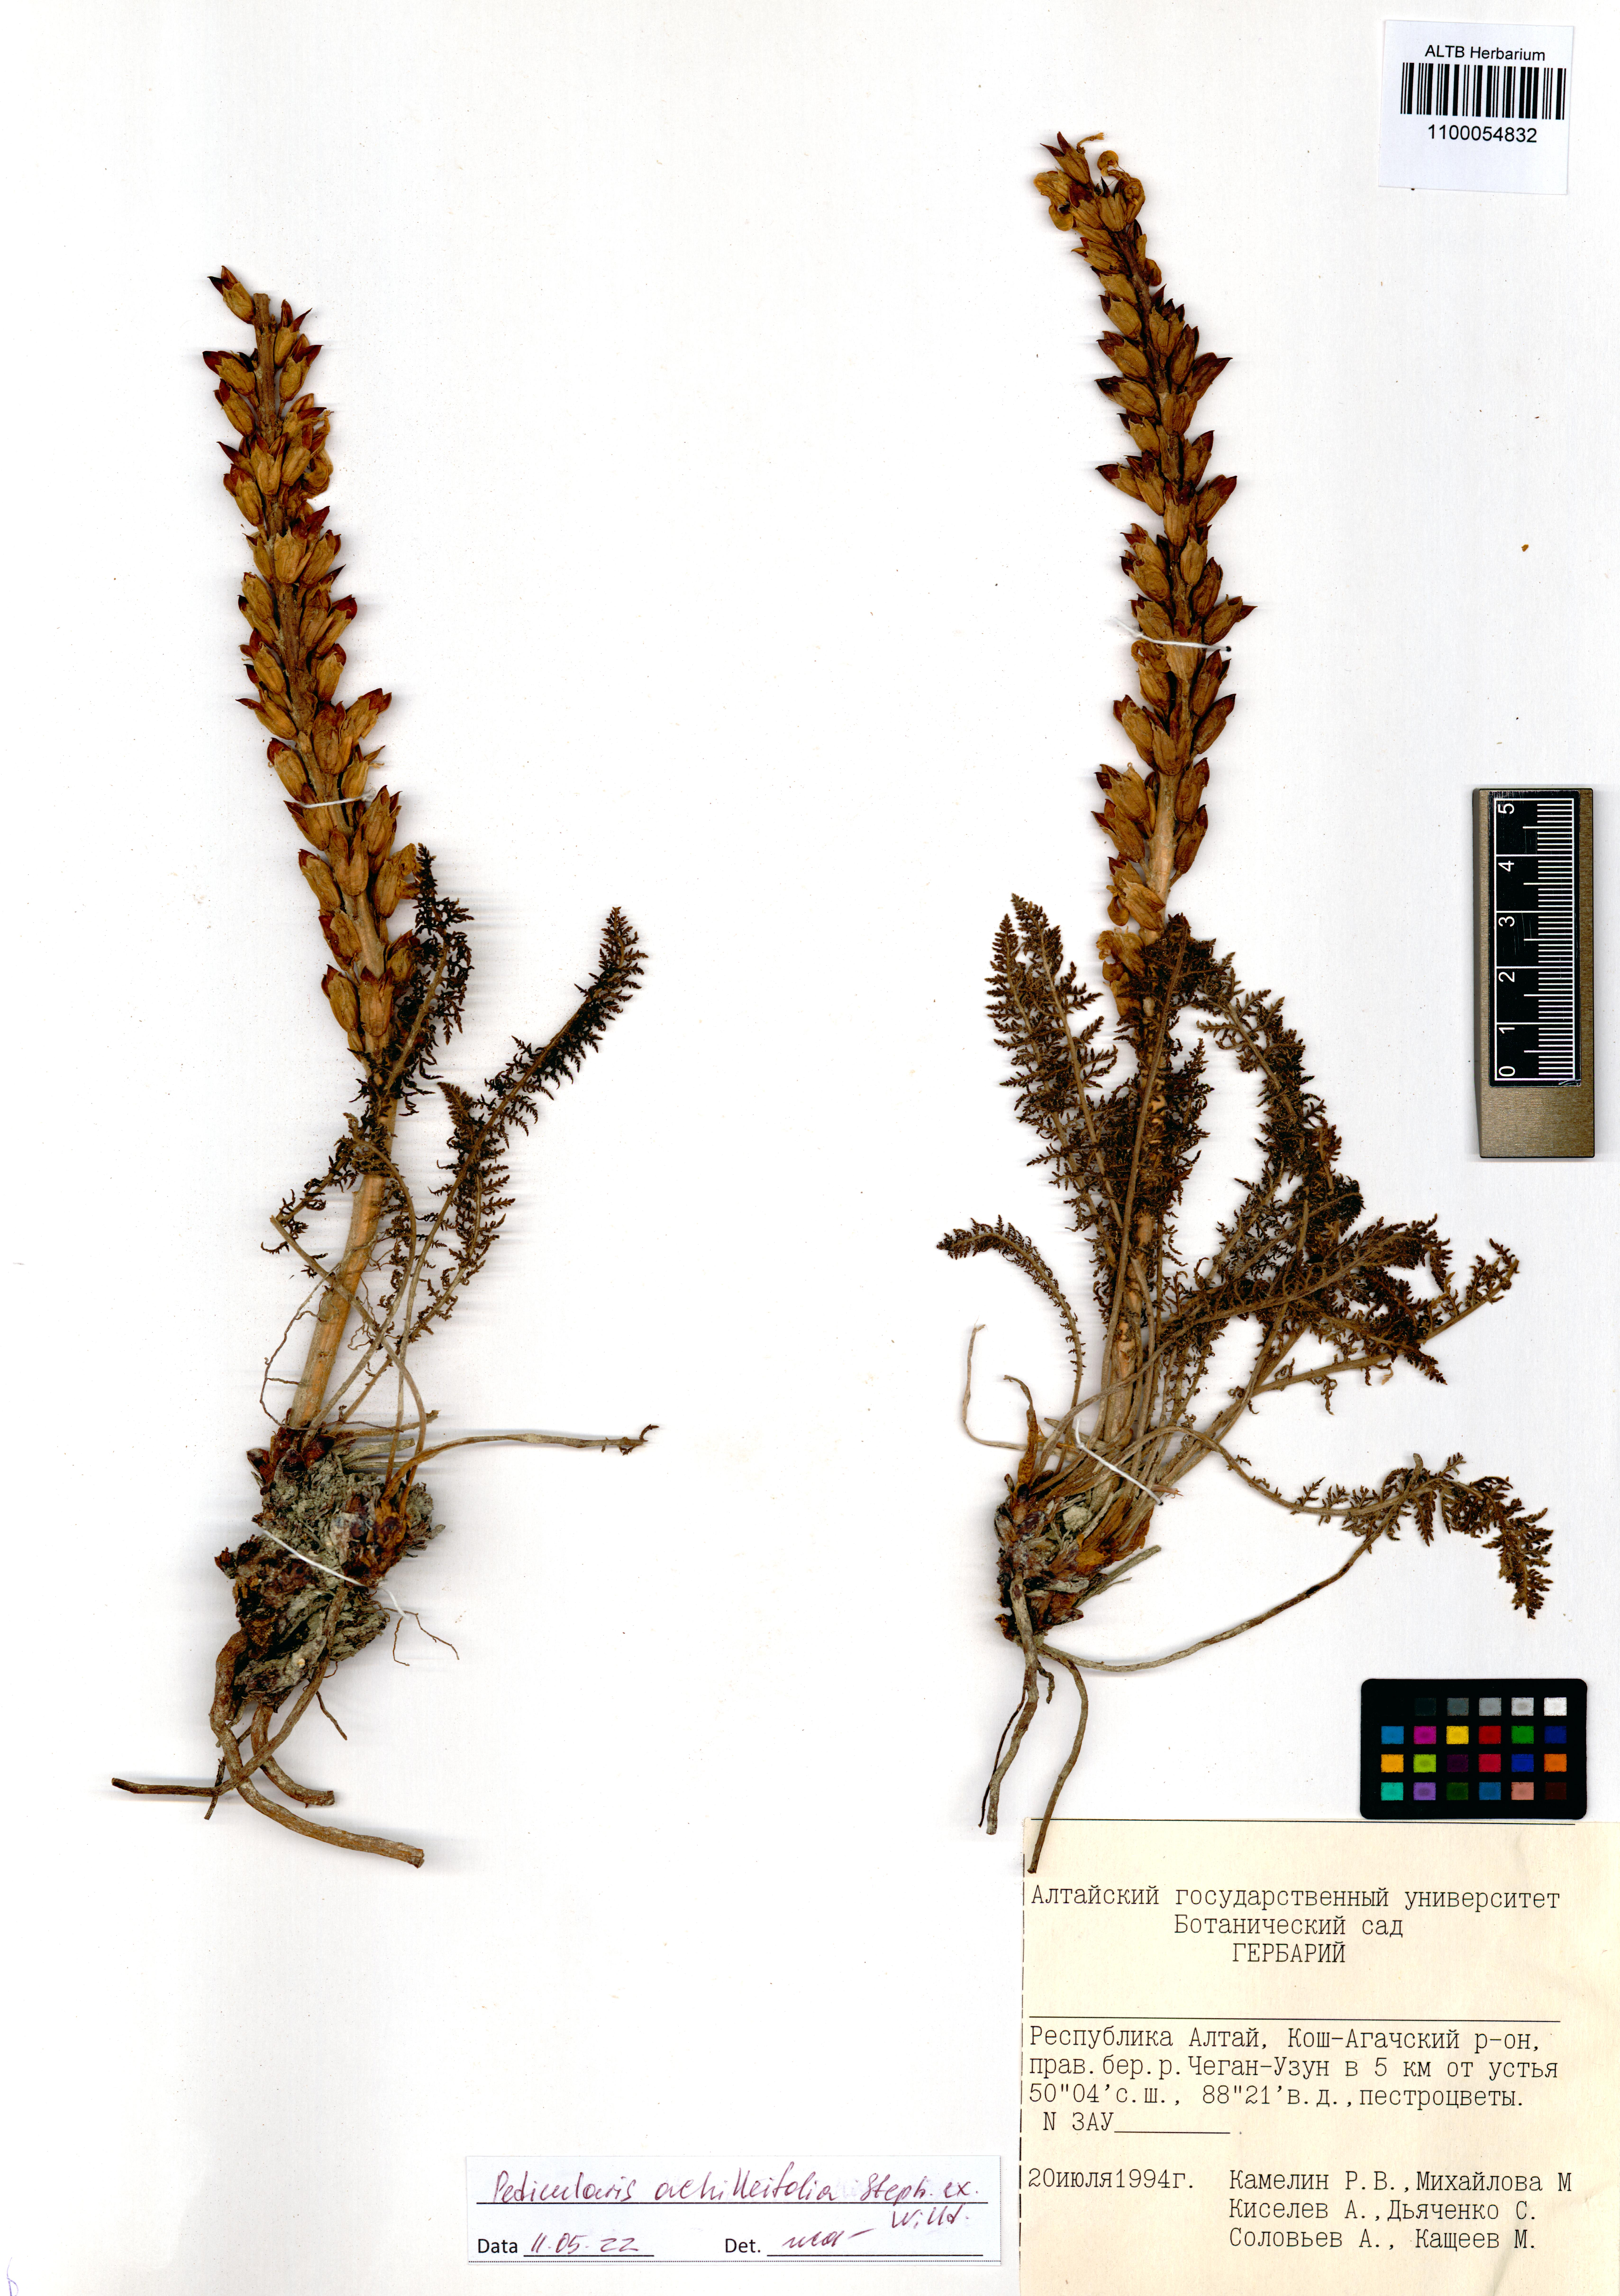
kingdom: Plantae
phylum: Tracheophyta
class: Magnoliopsida
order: Lamiales
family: Orobanchaceae
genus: Pedicularis
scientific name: Pedicularis achilleifolia
